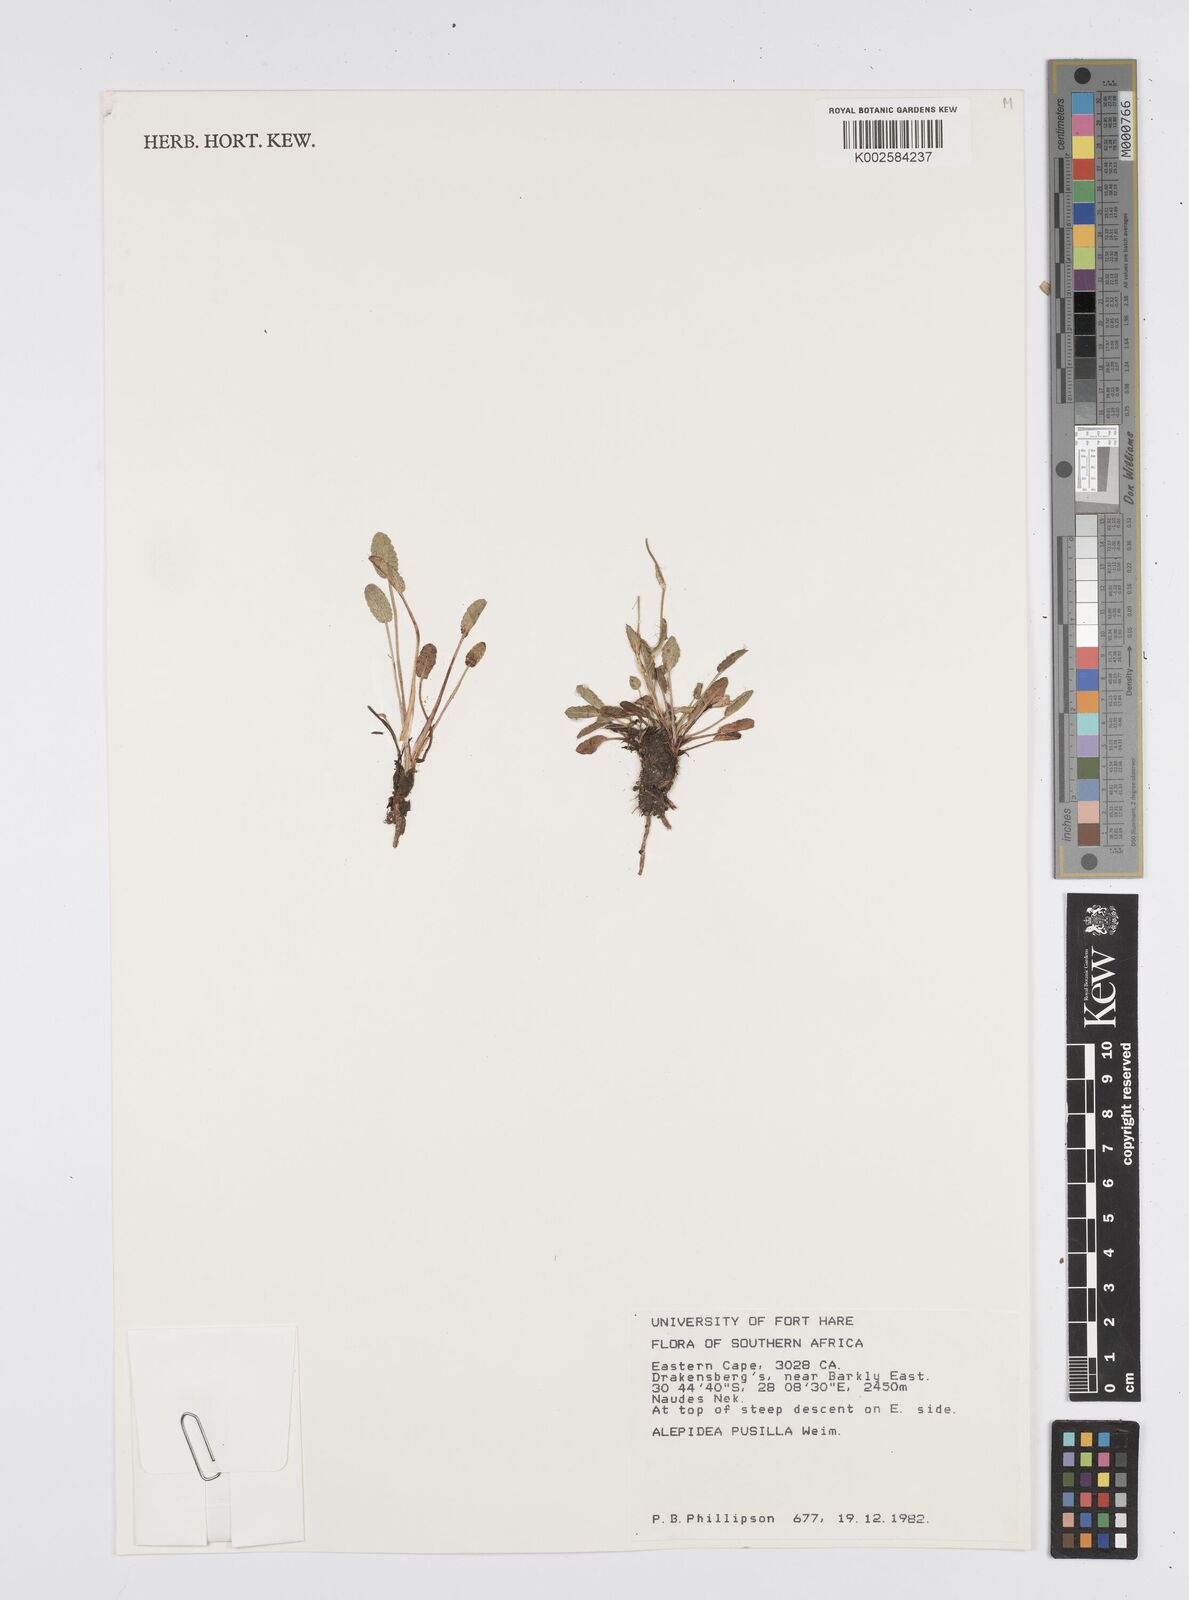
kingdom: Plantae
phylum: Tracheophyta
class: Magnoliopsida
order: Apiales
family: Apiaceae
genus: Alepidea
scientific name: Alepidea pusilla
